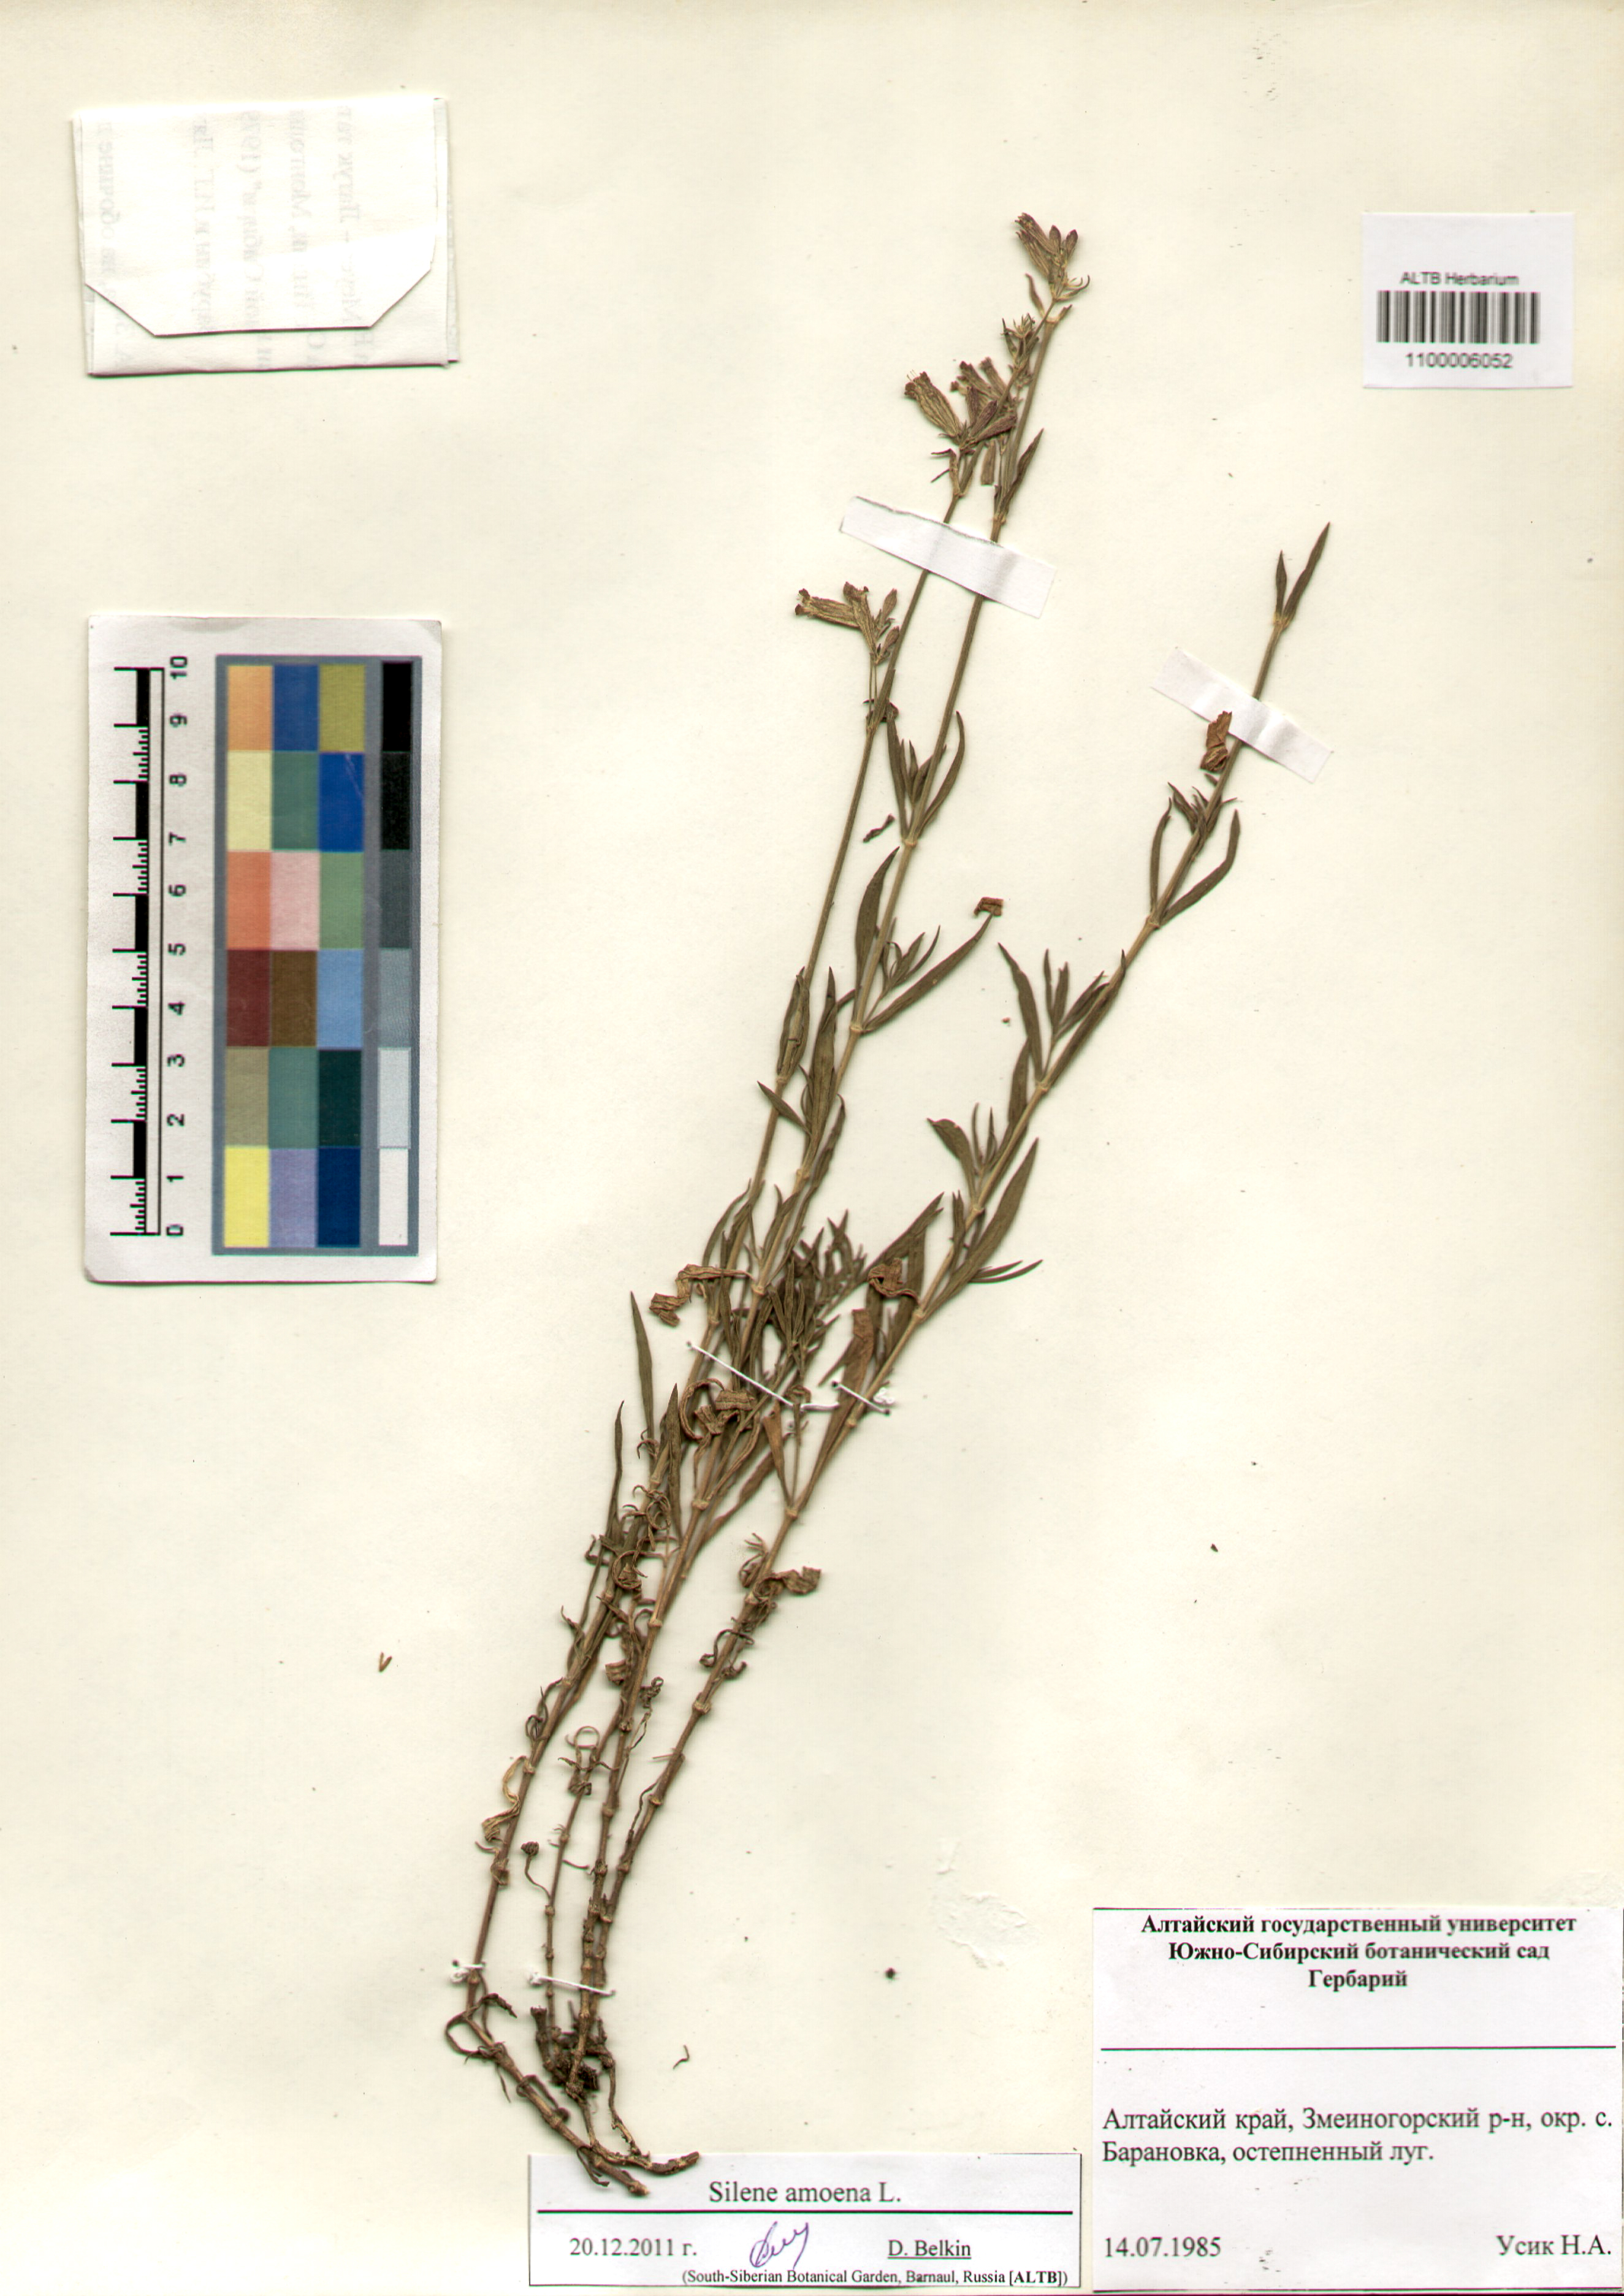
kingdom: Plantae
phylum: Tracheophyta
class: Magnoliopsida
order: Caryophyllales
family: Caryophyllaceae
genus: Silene
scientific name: Silene amoena
